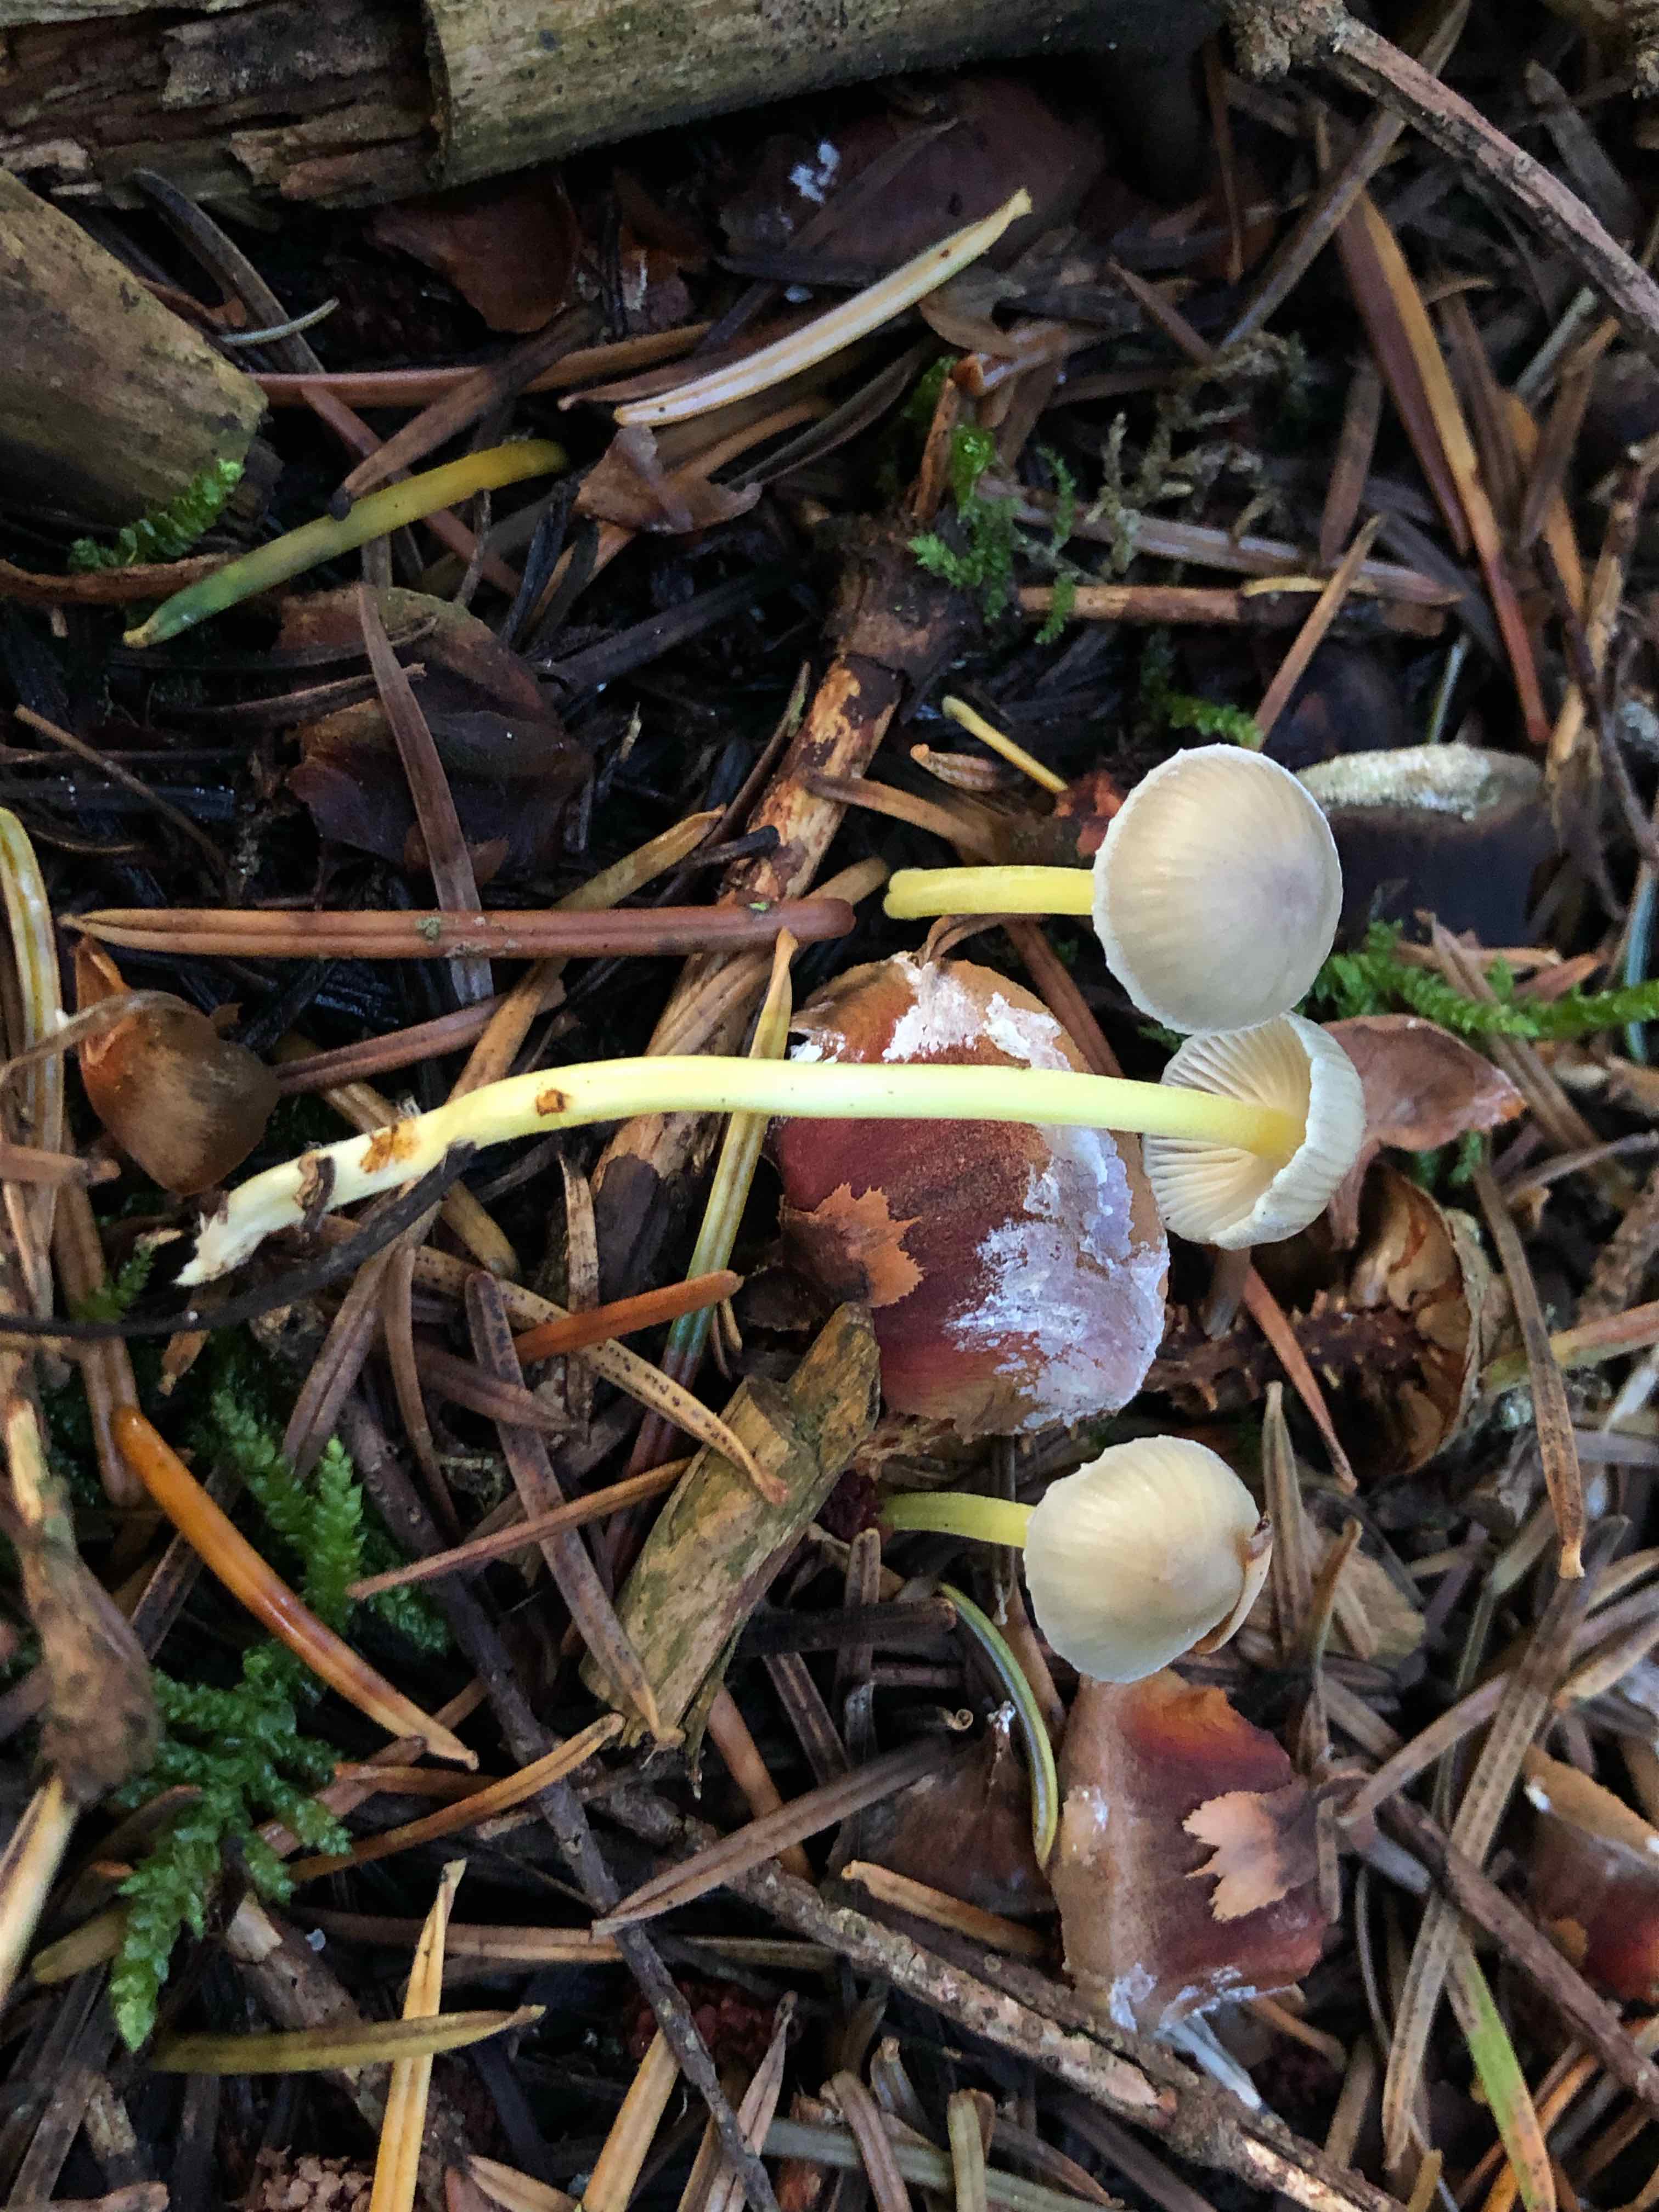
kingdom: Fungi
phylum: Basidiomycota
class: Agaricomycetes
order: Agaricales
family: Mycenaceae
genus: Mycena
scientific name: Mycena epipterygia
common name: gulstokket huesvamp
